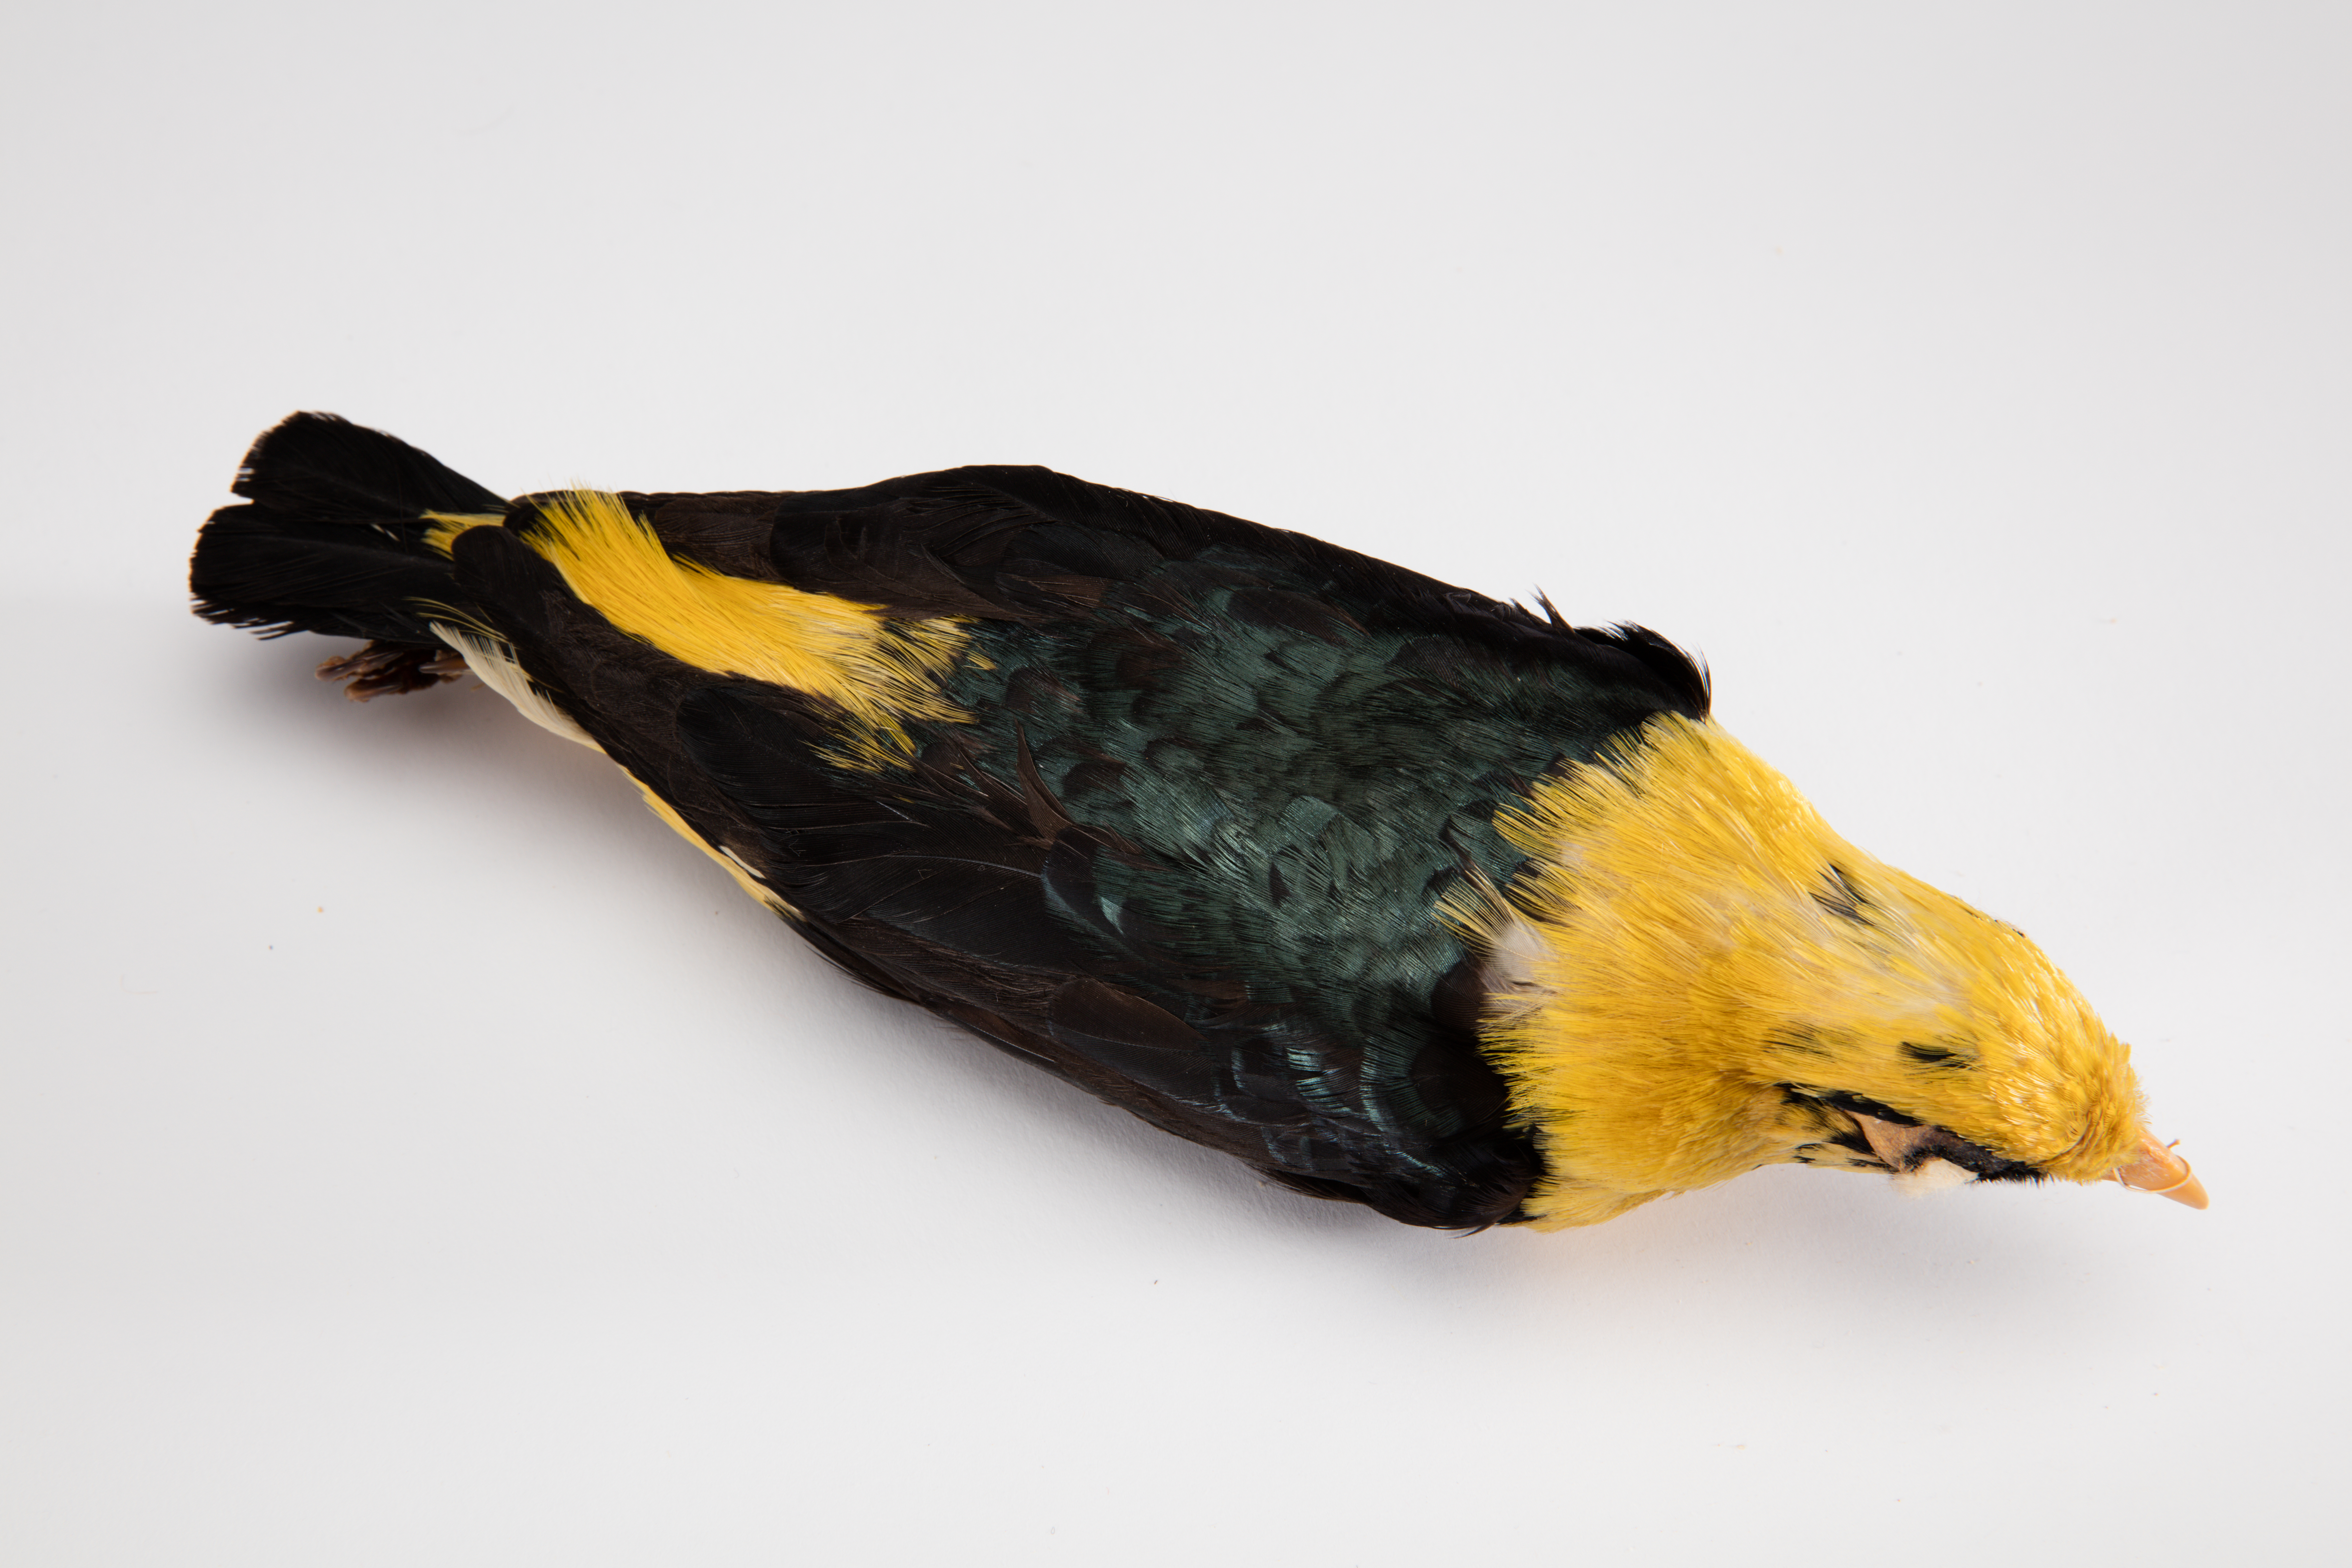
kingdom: Animalia
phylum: Chordata
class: Aves
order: Passeriformes
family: Sturnidae
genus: Mino
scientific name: Mino
